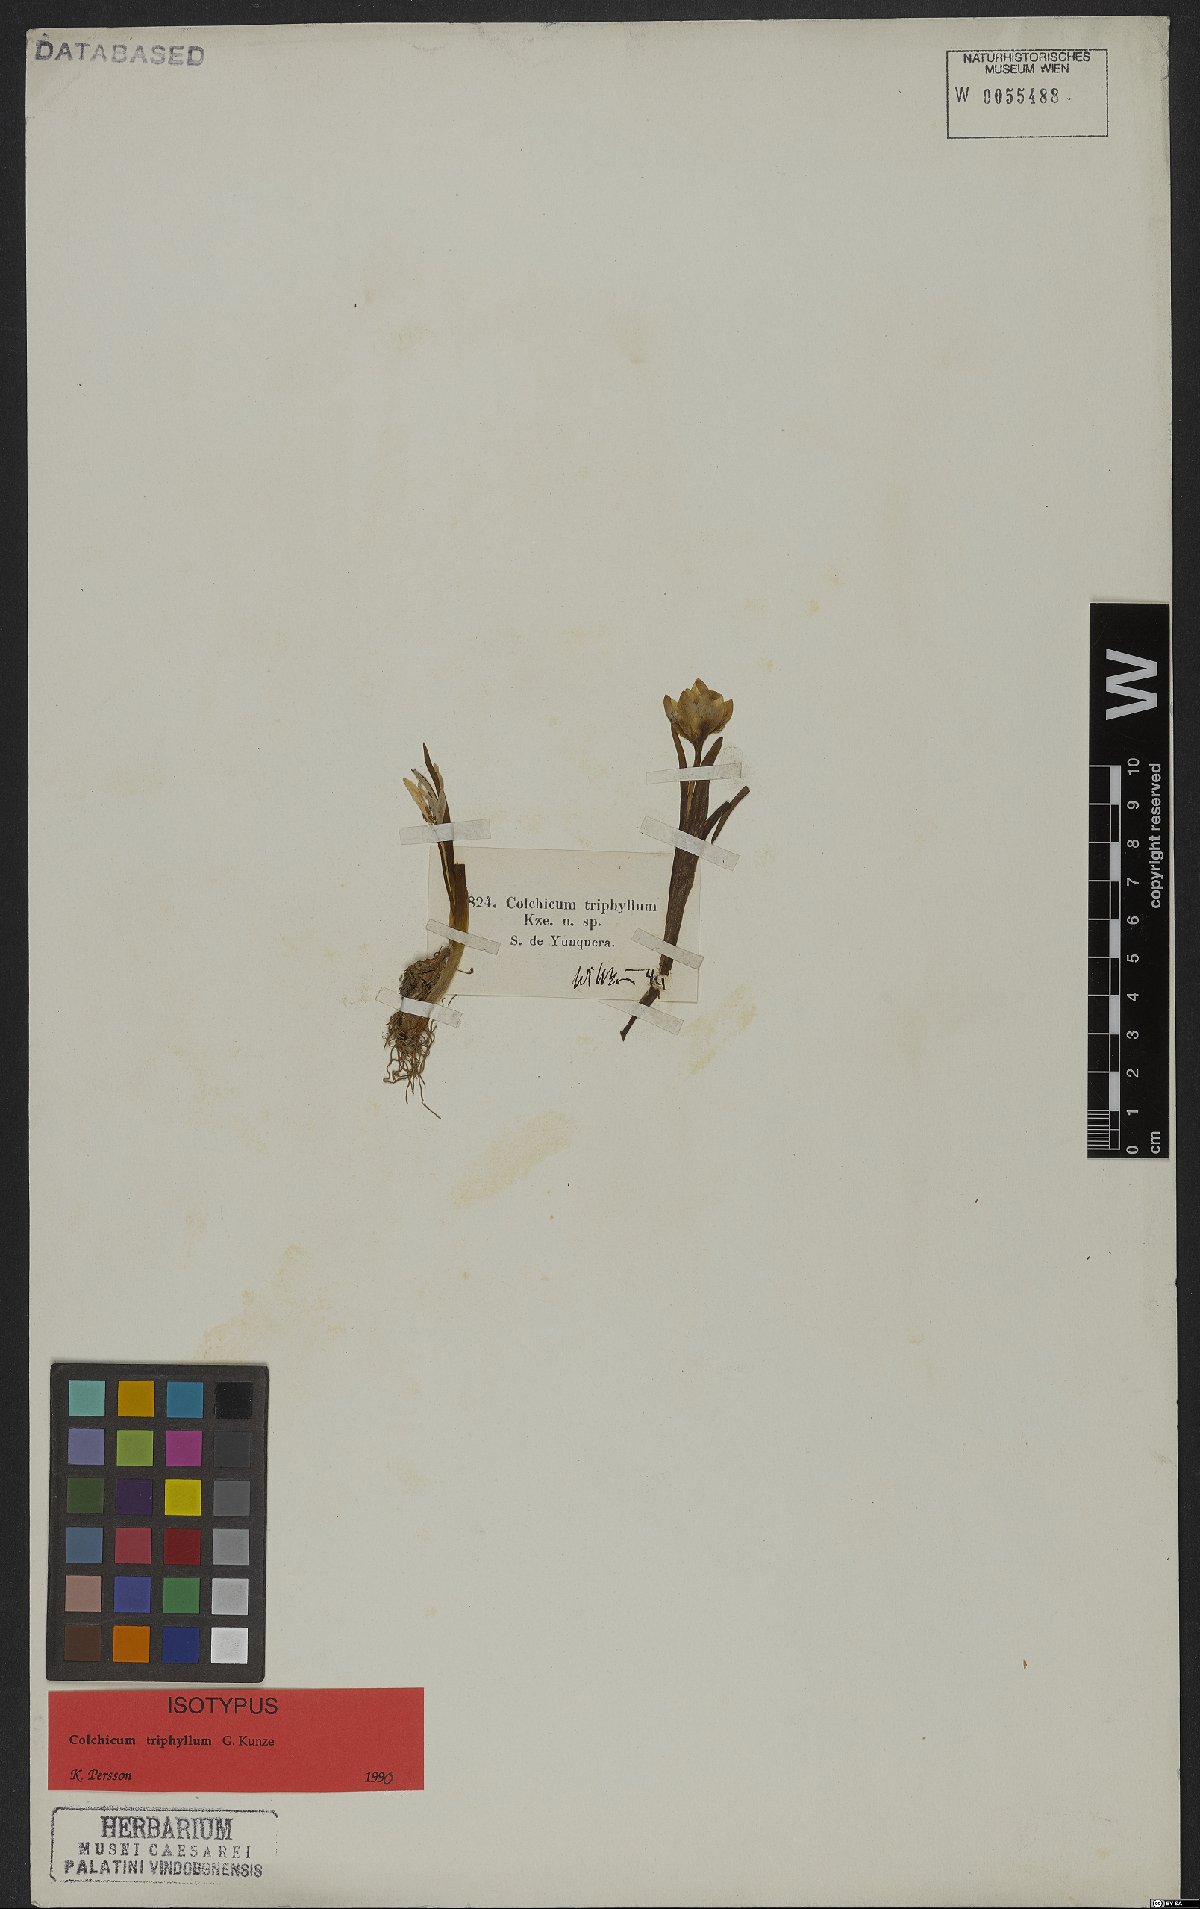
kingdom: Plantae
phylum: Tracheophyta
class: Liliopsida
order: Liliales
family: Colchicaceae
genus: Colchicum
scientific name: Colchicum triphyllum
